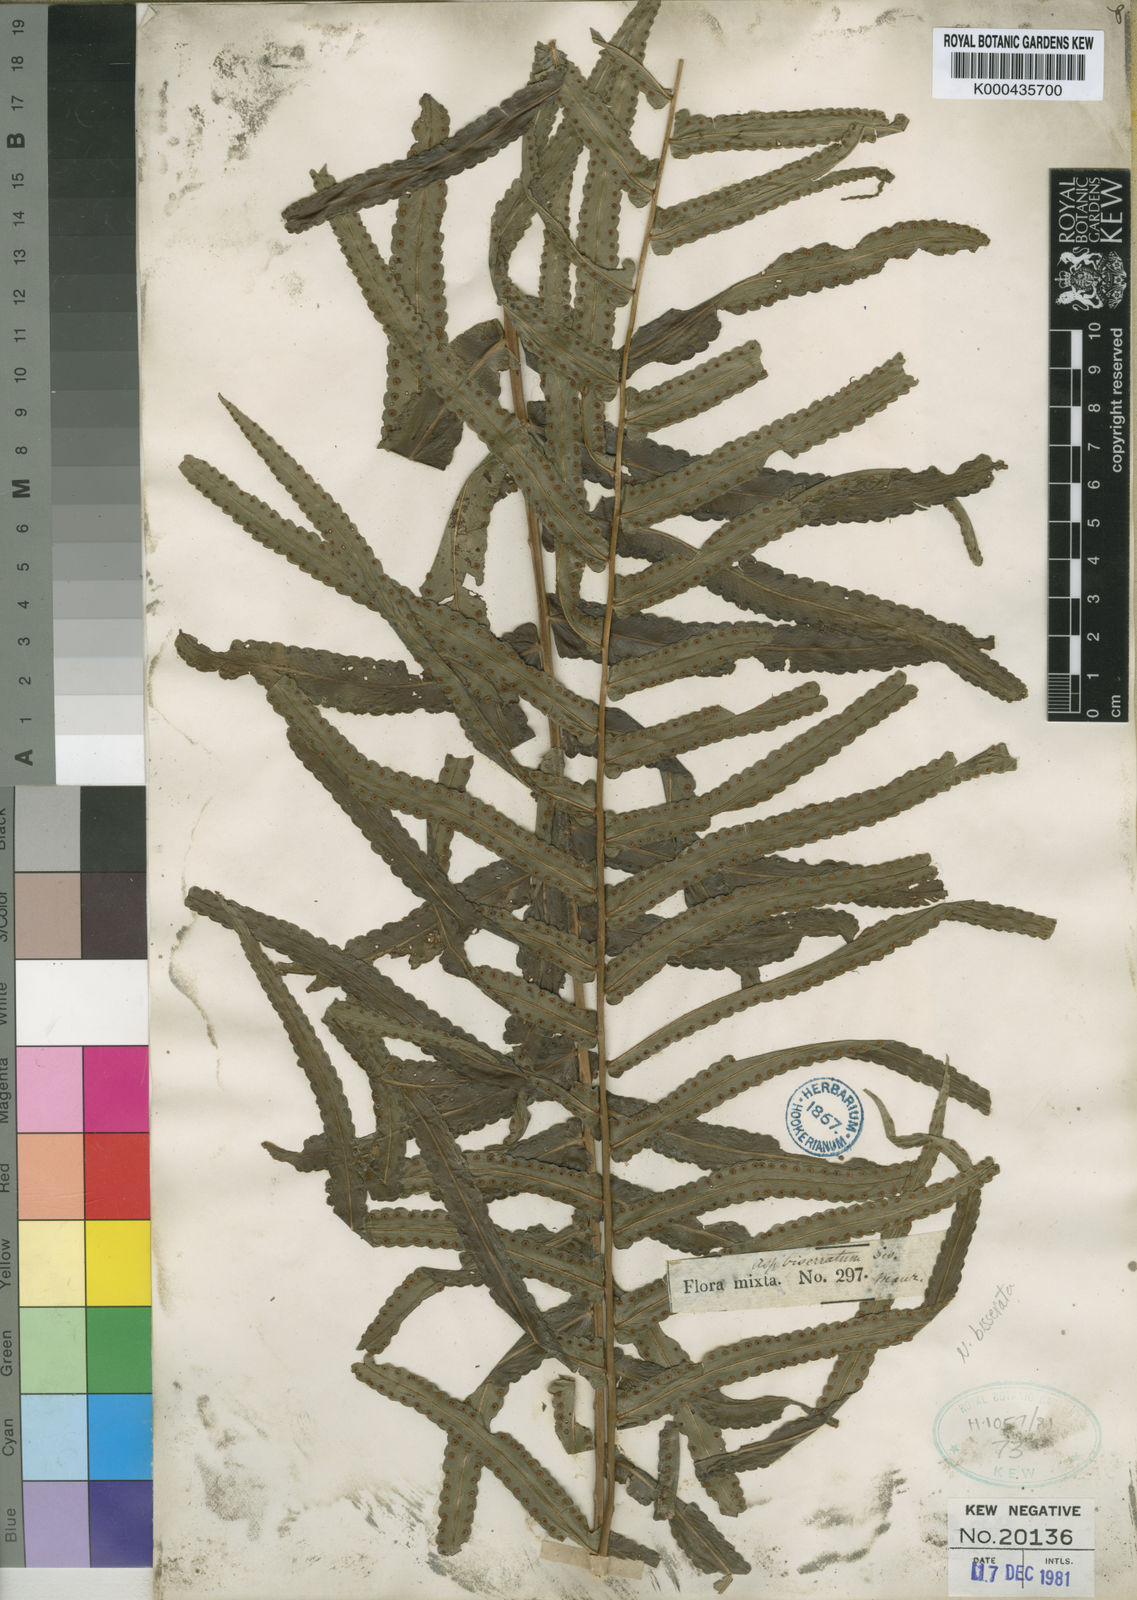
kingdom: Plantae
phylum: Tracheophyta
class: Polypodiopsida
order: Polypodiales
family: Nephrolepidaceae
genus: Nephrolepis
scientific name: Nephrolepis biserrata
